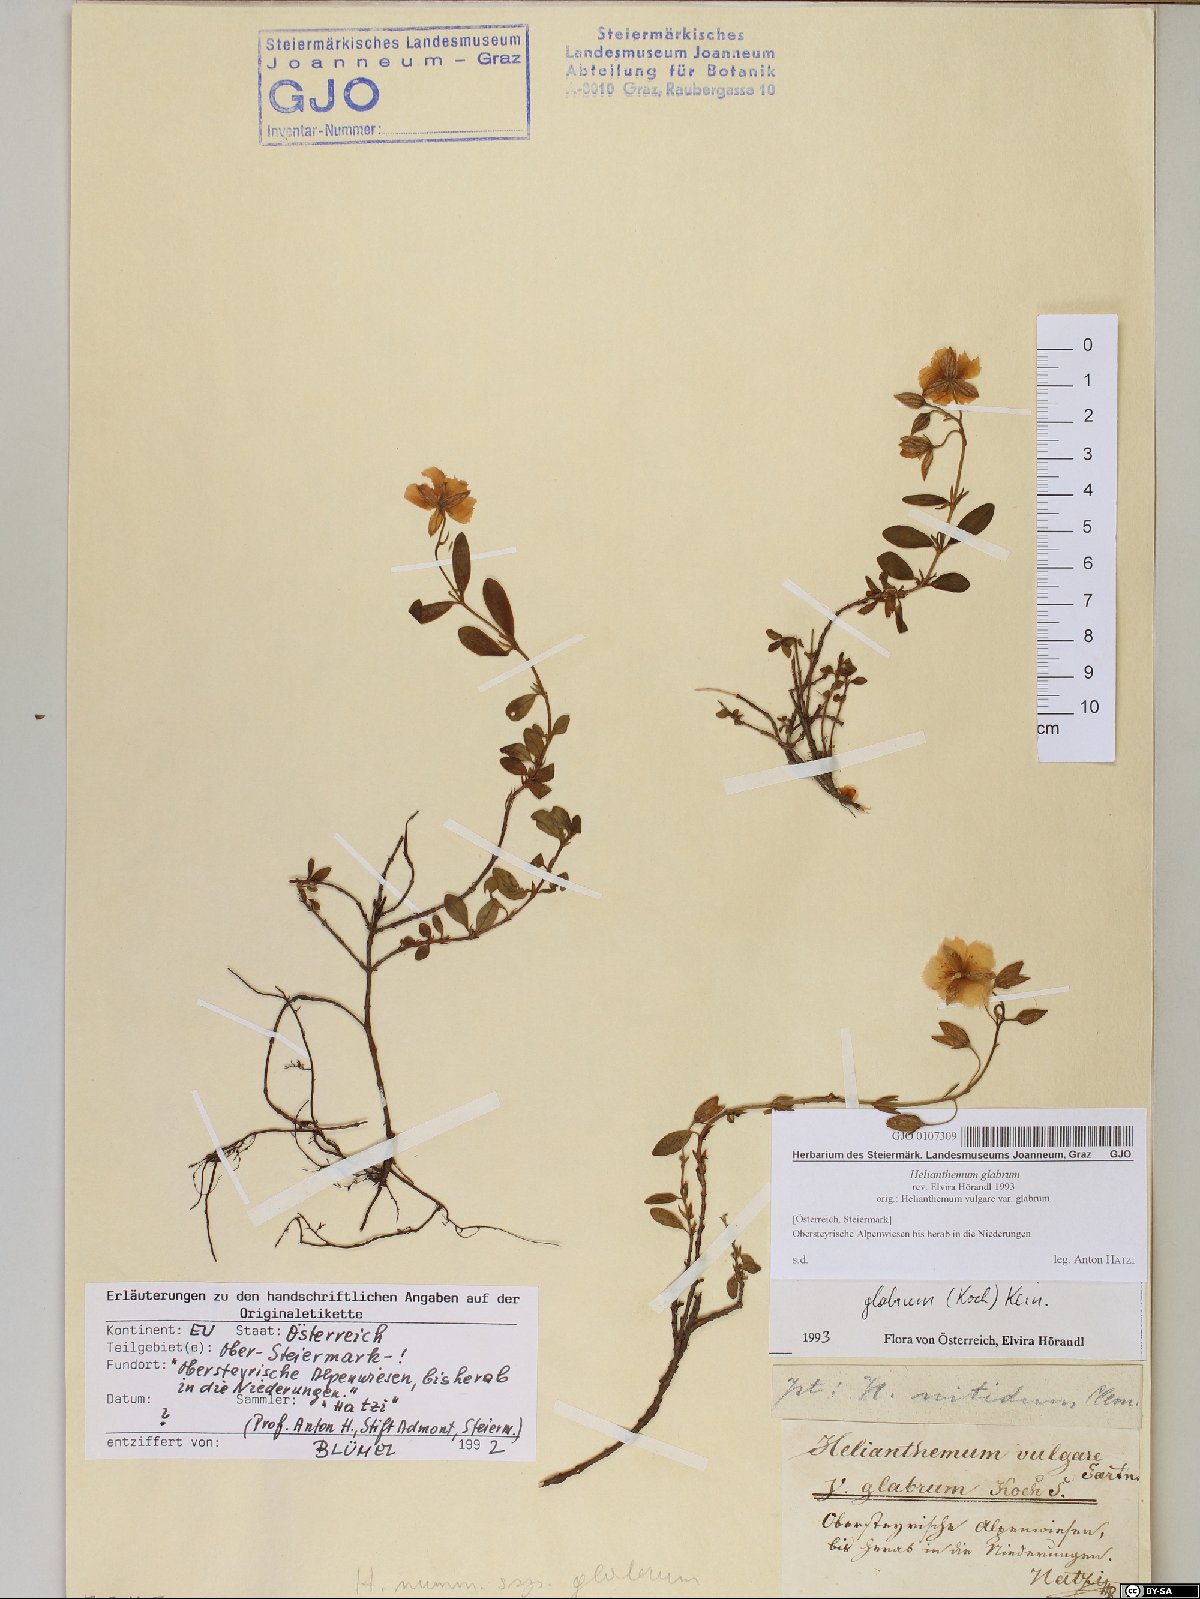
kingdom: Plantae
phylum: Tracheophyta
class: Magnoliopsida
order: Malvales
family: Cistaceae
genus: Helianthemum
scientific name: Helianthemum nummularium
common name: Common rock-rose
